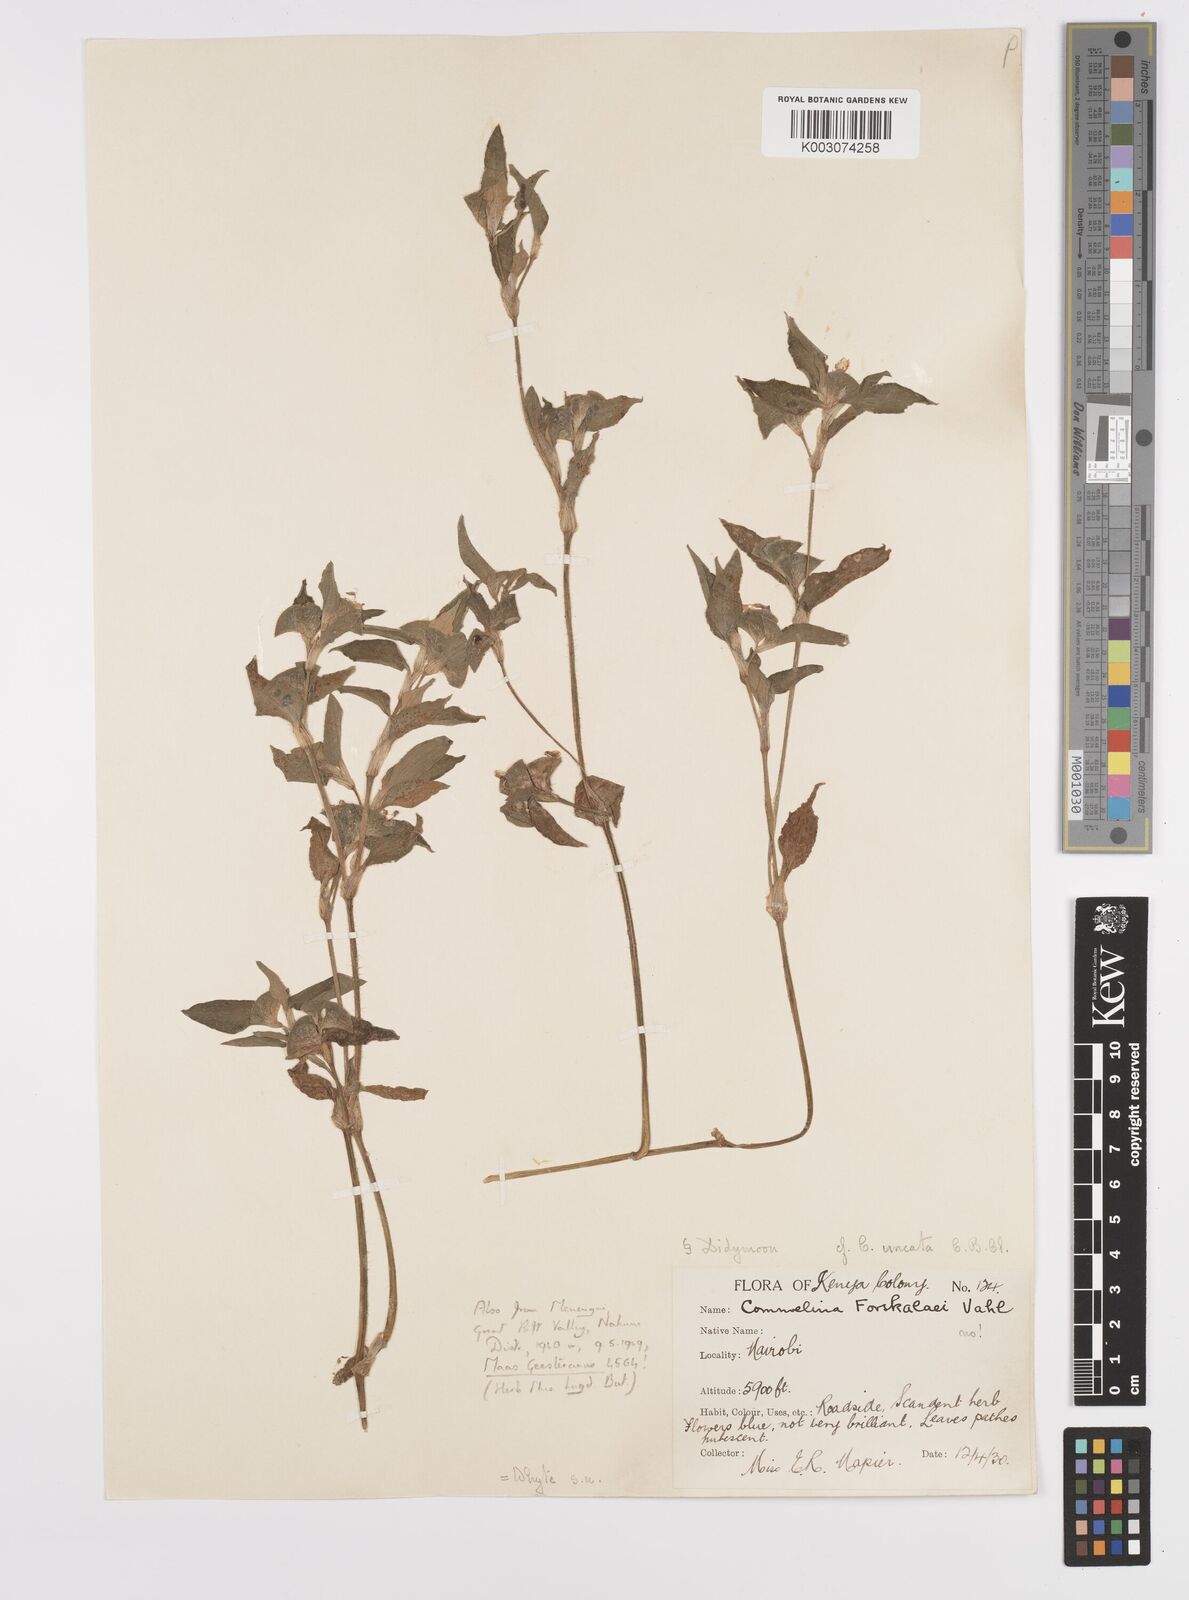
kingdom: Plantae
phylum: Tracheophyta
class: Liliopsida
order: Commelinales
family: Commelinaceae
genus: Commelina
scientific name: Commelina benghalensis
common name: Jio
